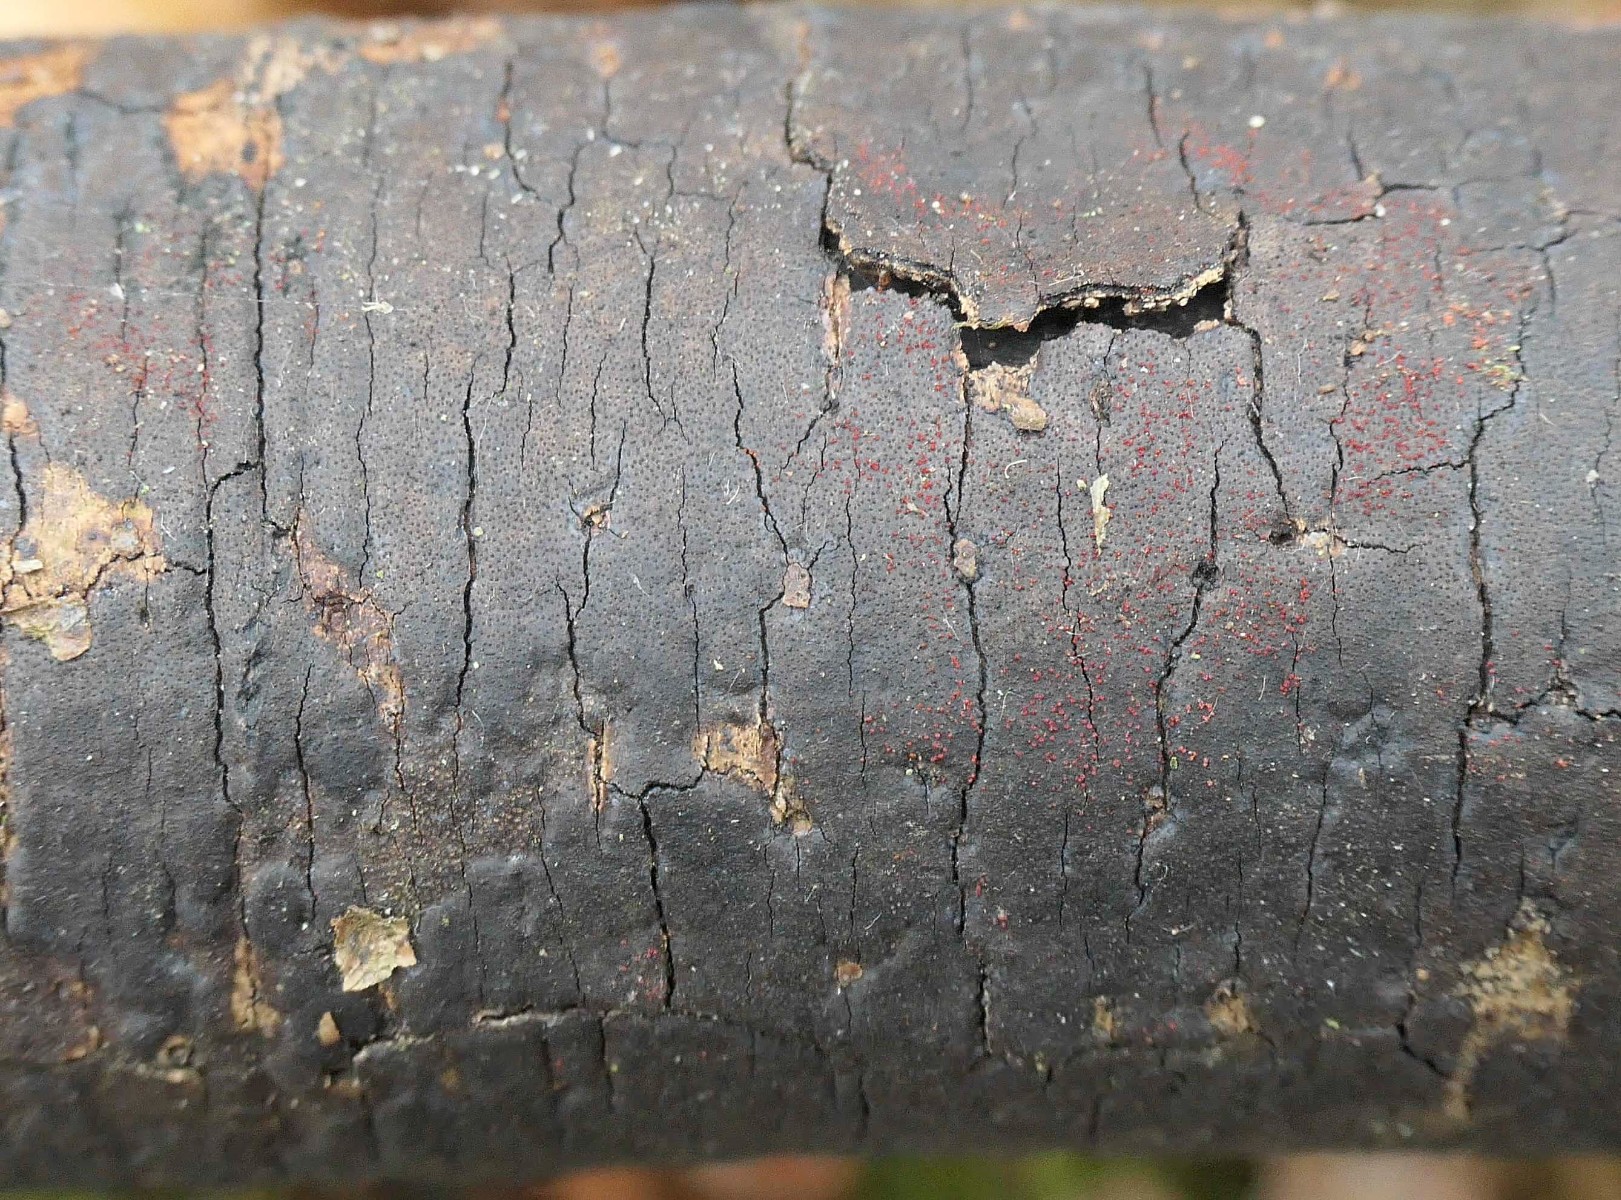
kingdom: Fungi
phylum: Ascomycota
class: Sordariomycetes
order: Hypocreales
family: Nectriaceae
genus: Dialonectria
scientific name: Dialonectria episphaeria
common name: kulskorpe-cinnobersvamp
